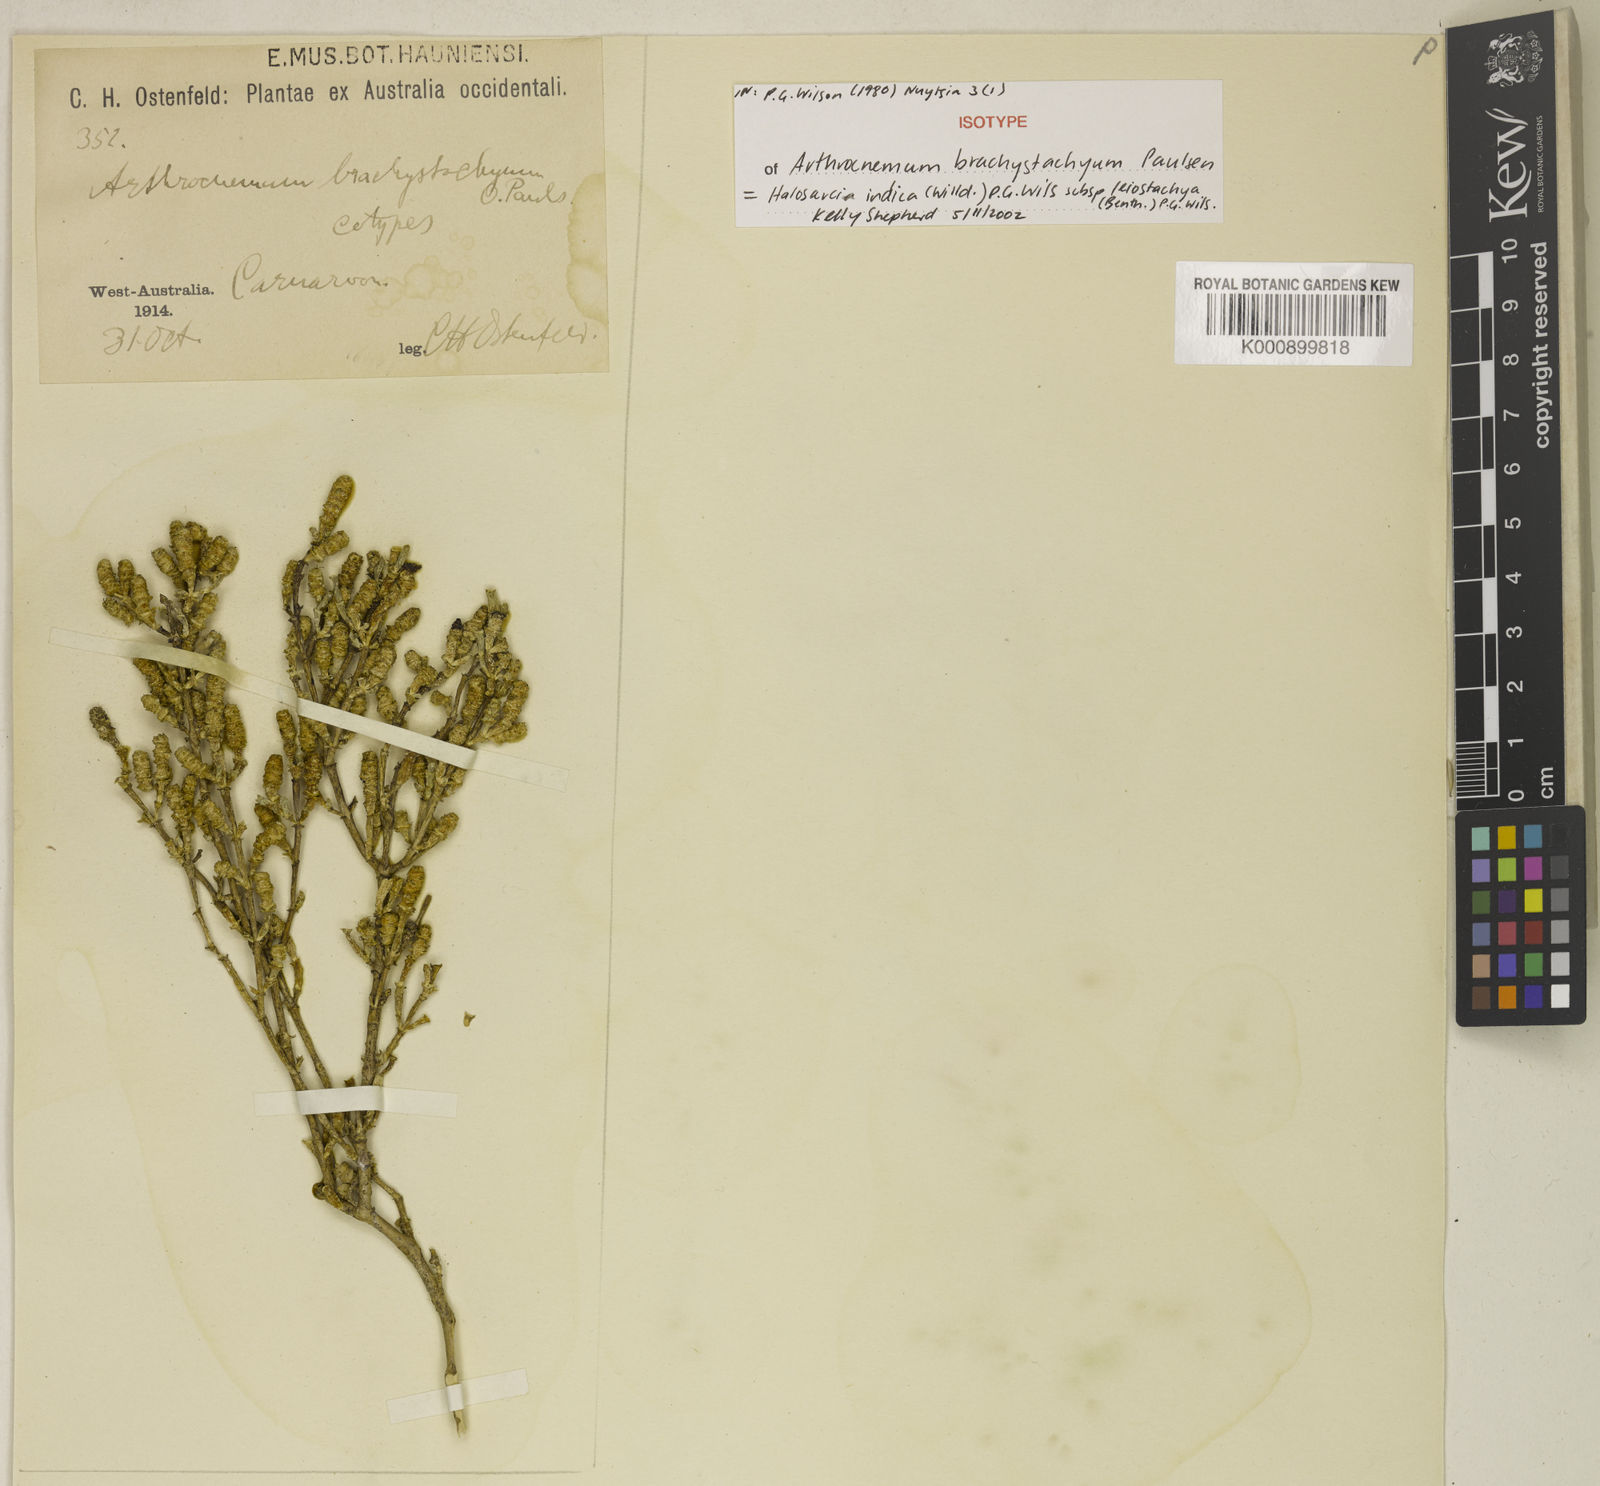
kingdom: Plantae
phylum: Tracheophyta
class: Magnoliopsida
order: Caryophyllales
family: Amaranthaceae
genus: Tecticornia
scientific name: Tecticornia indica
